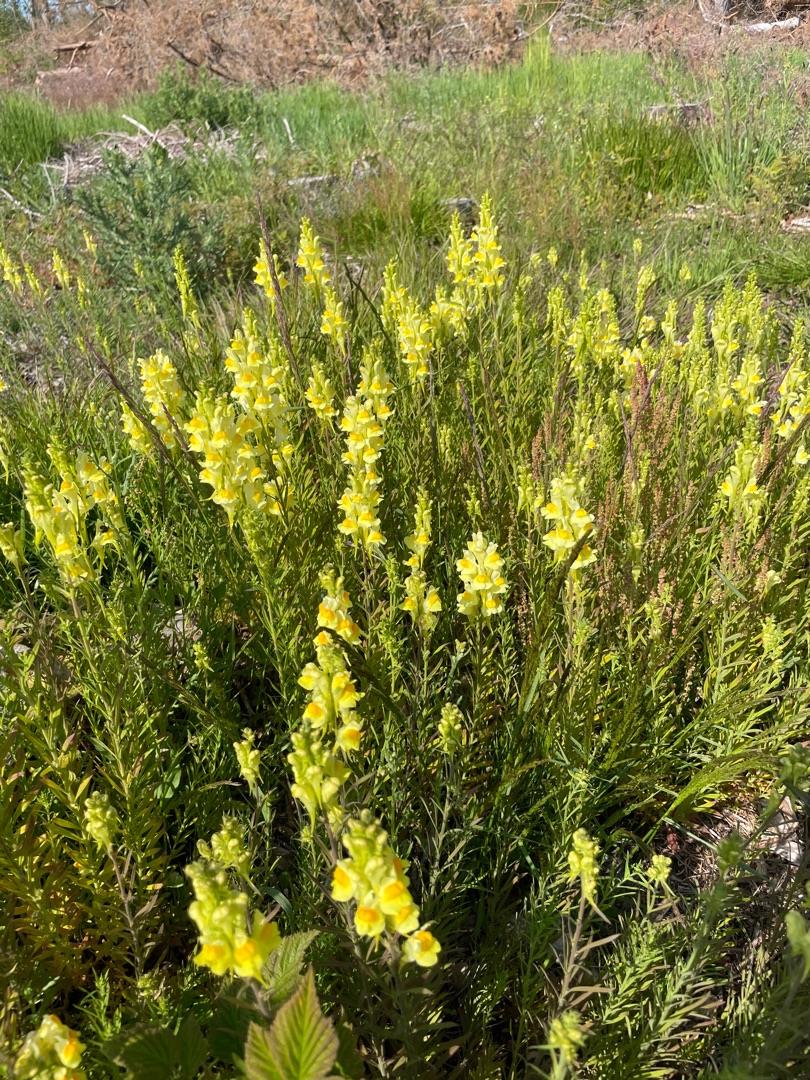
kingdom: Plantae
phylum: Tracheophyta
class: Magnoliopsida
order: Lamiales
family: Plantaginaceae
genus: Linaria
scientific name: Linaria vulgaris
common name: Almindelig torskemund
